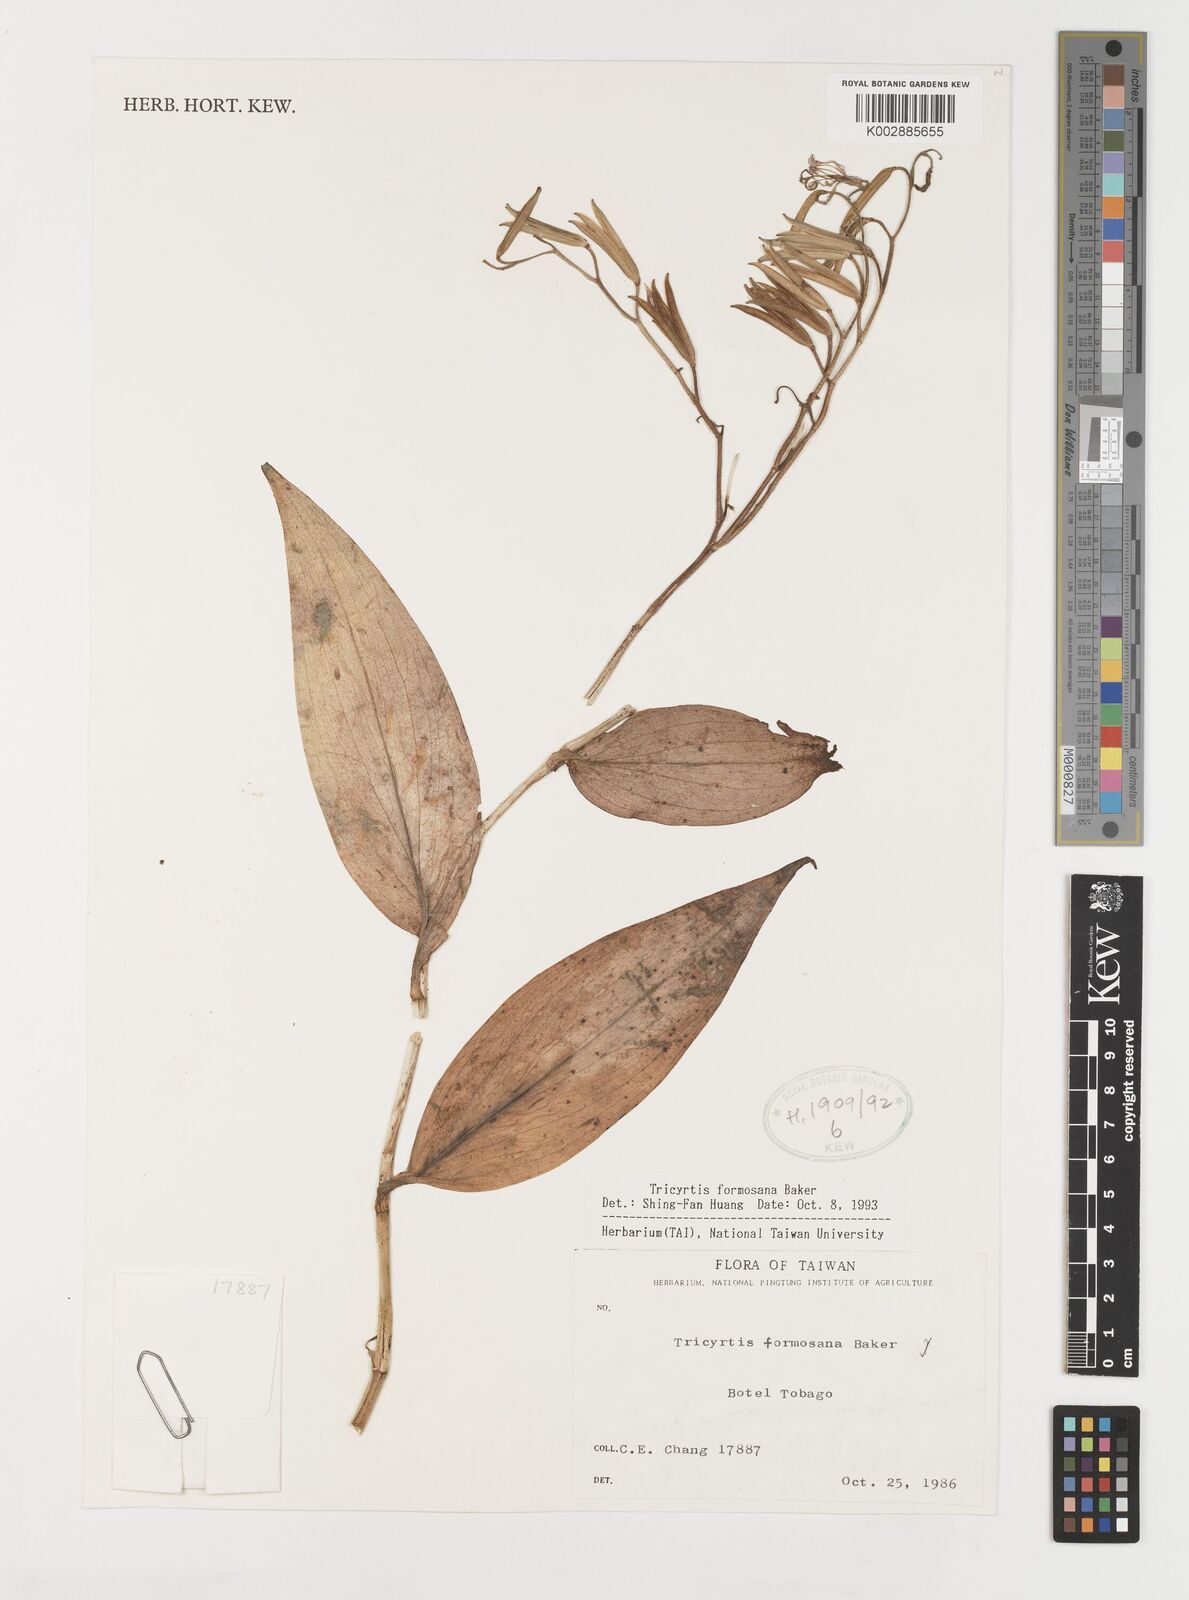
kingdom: Plantae
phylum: Tracheophyta
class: Liliopsida
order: Liliales
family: Liliaceae
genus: Tricyrtis
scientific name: Tricyrtis formosana
